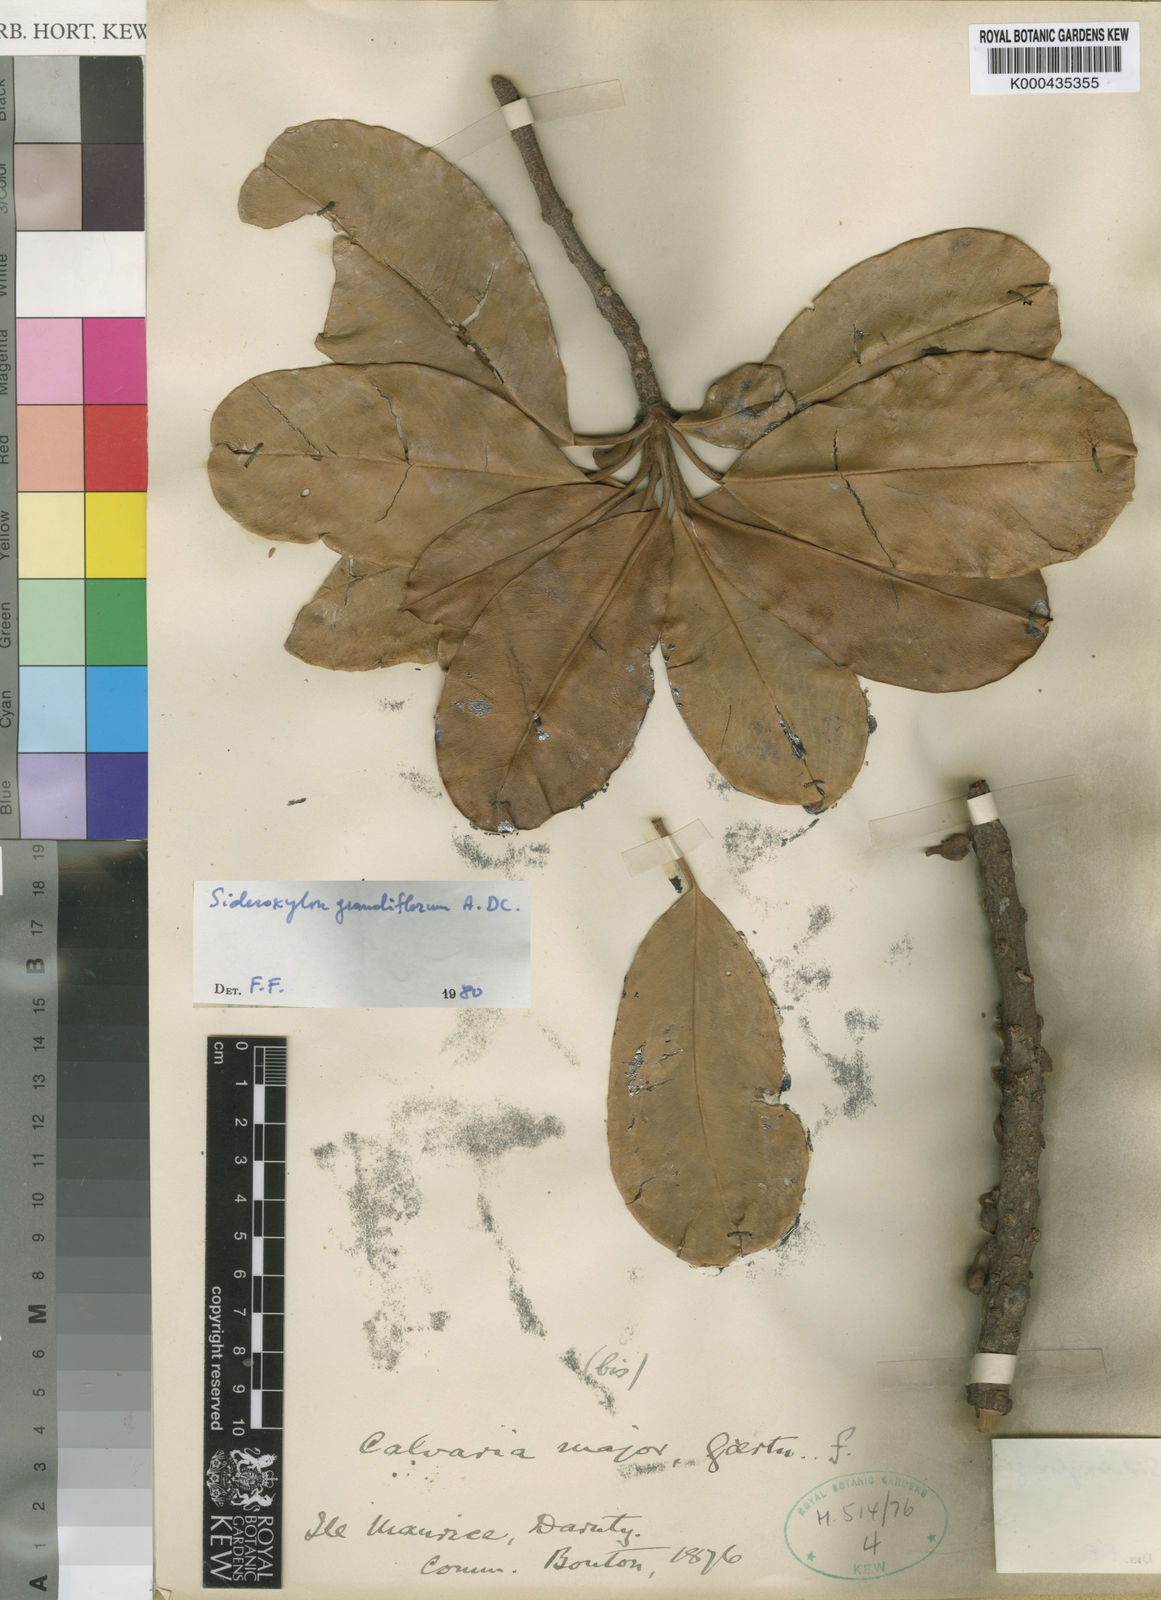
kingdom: Plantae
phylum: Tracheophyta
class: Magnoliopsida
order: Ericales
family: Sapotaceae
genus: Sideroxylon
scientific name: Sideroxylon grandiflorum
